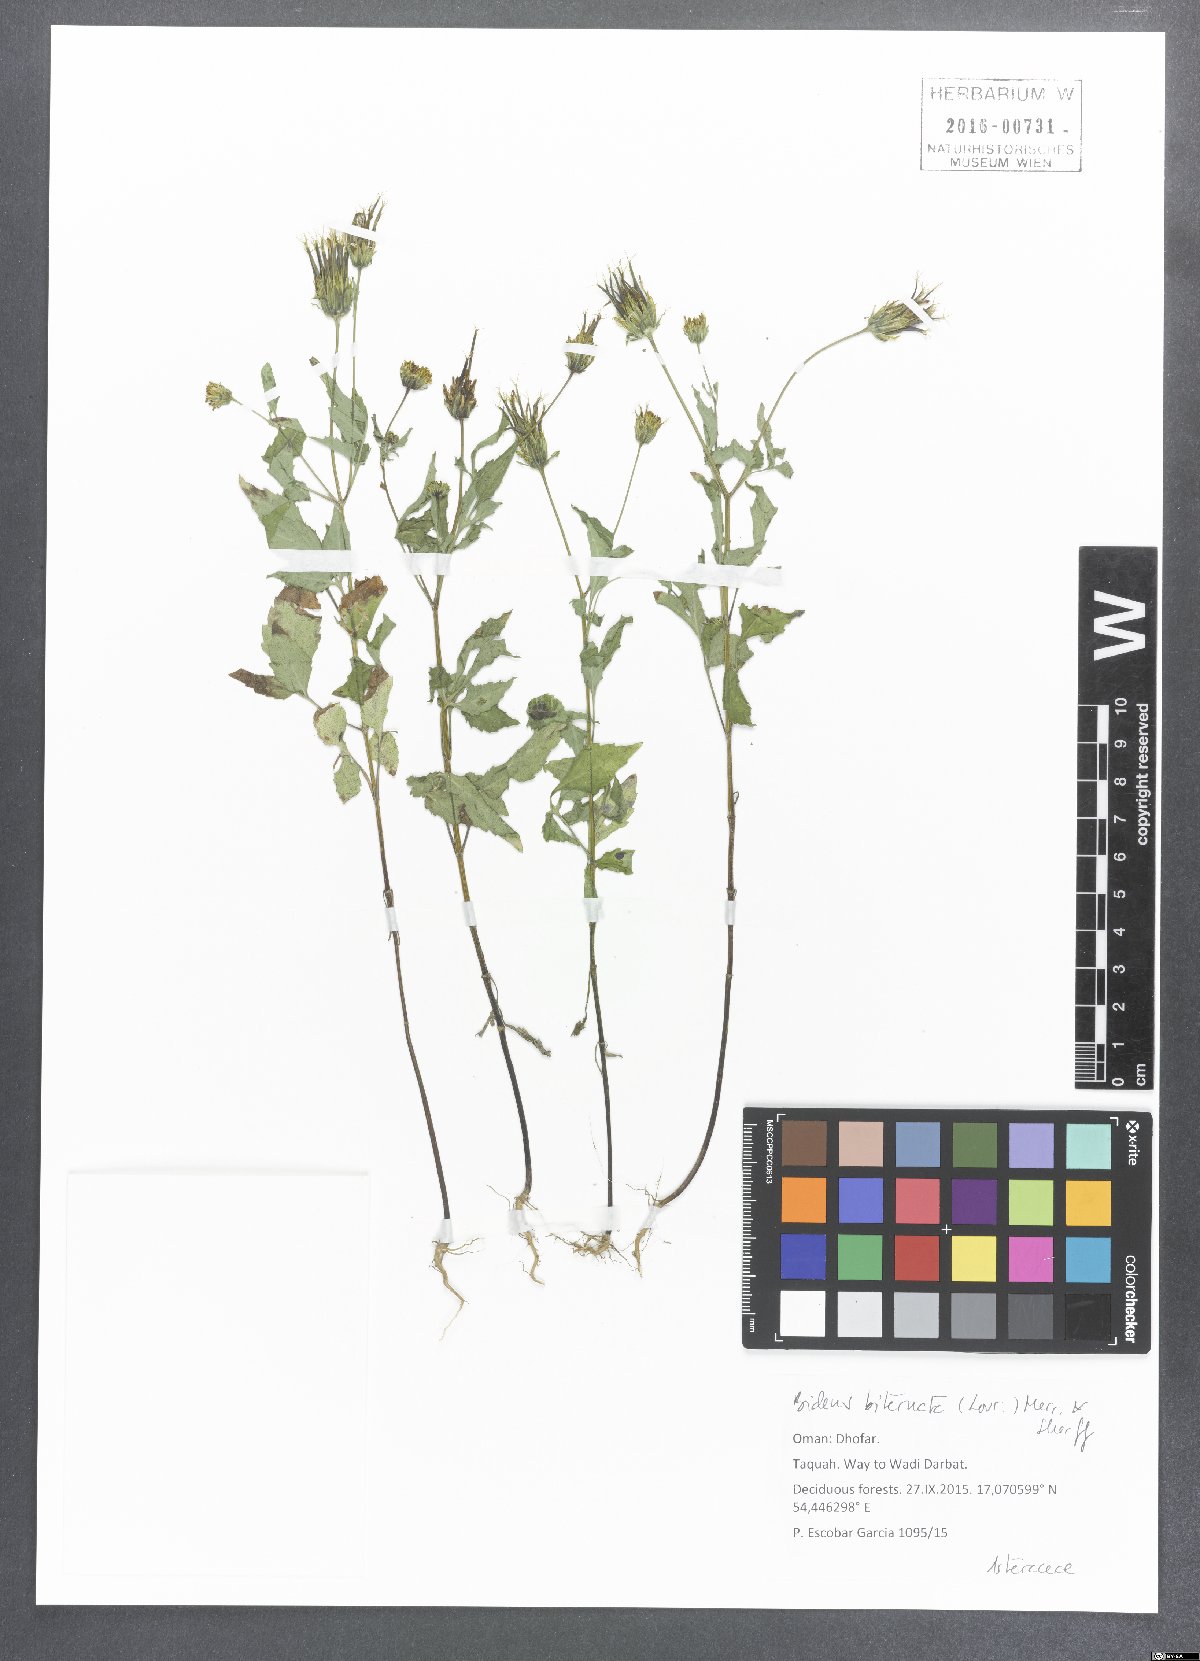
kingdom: Plantae
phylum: Tracheophyta
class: Magnoliopsida
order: Asterales
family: Asteraceae
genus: Bidens
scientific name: Bidens biternata
